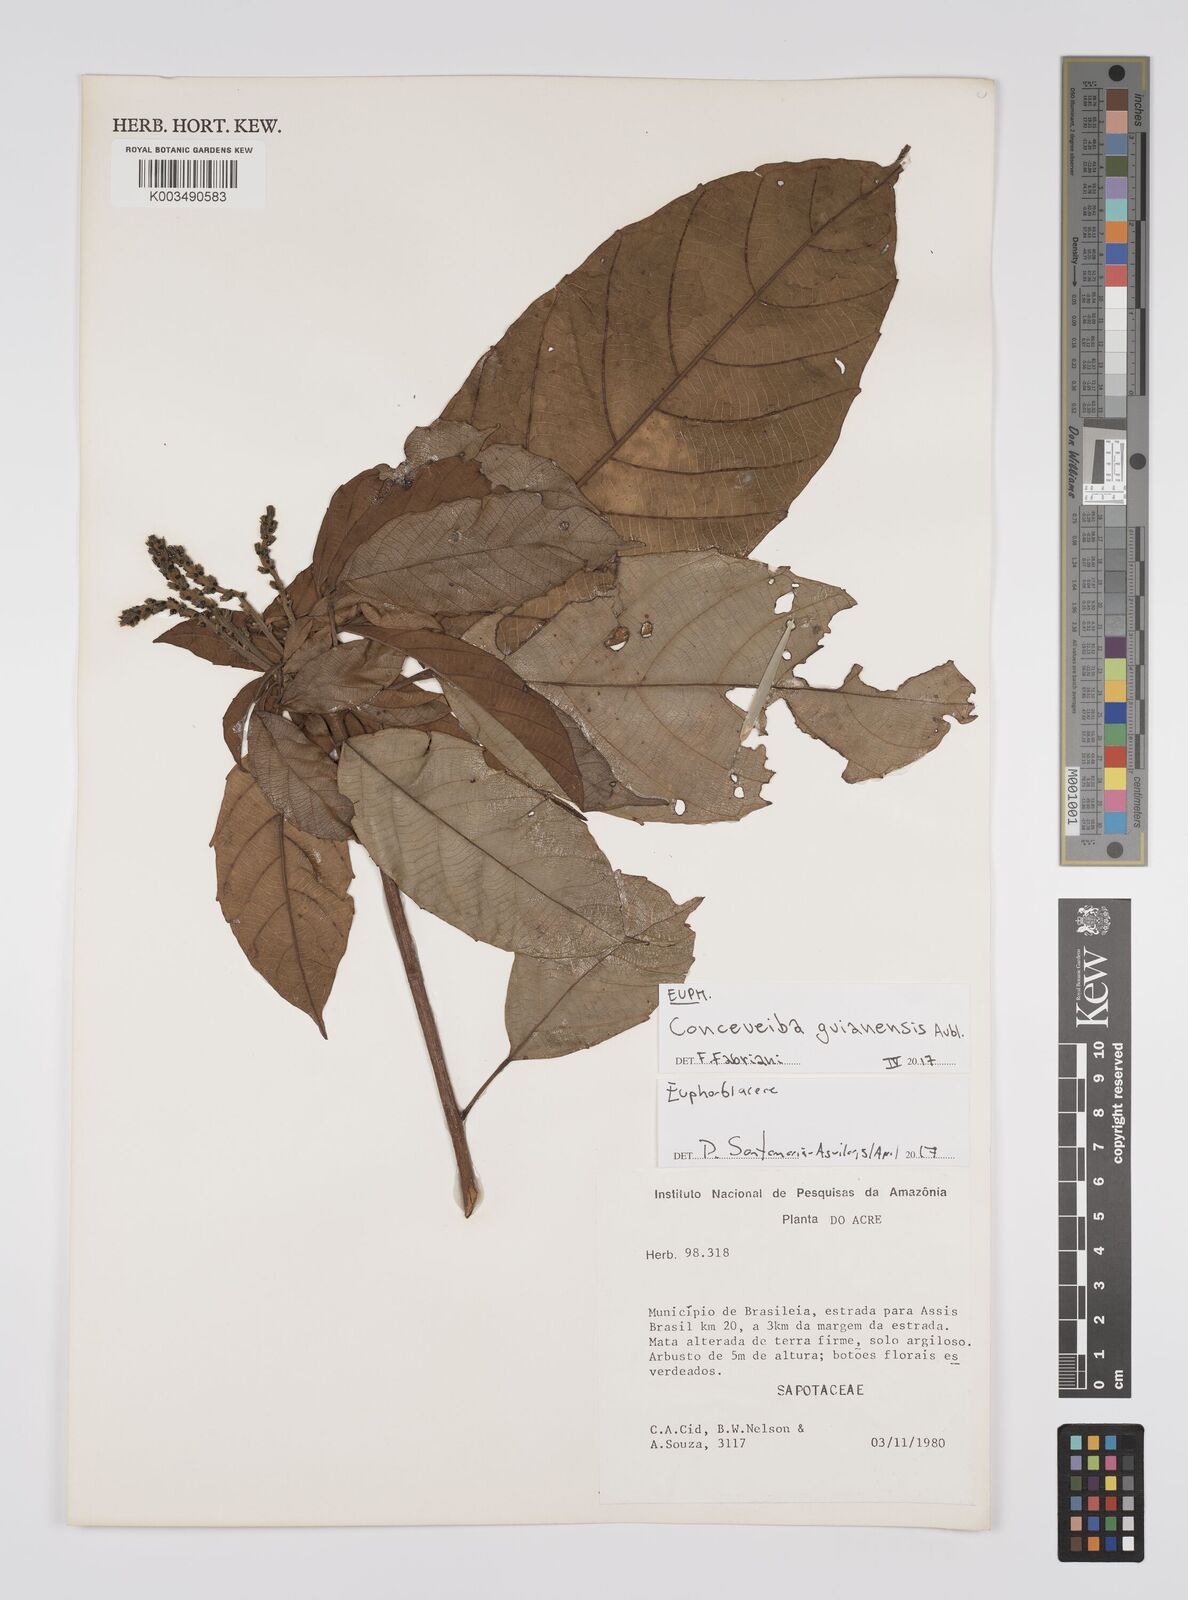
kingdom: Plantae
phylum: Tracheophyta
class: Magnoliopsida
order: Malpighiales
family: Euphorbiaceae
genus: Conceveiba
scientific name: Conceveiba guianensis
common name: Poatoru
